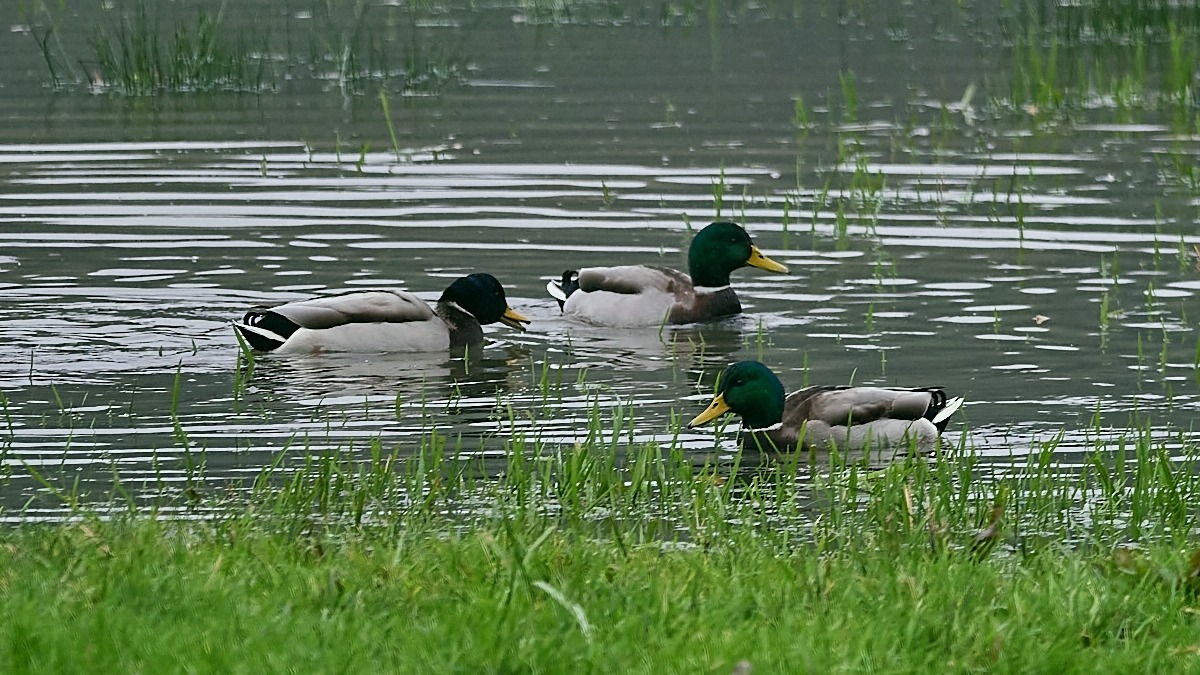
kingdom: Animalia
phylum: Chordata
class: Aves
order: Anseriformes
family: Anatidae
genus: Anas
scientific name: Anas platyrhynchos
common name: Gråand
